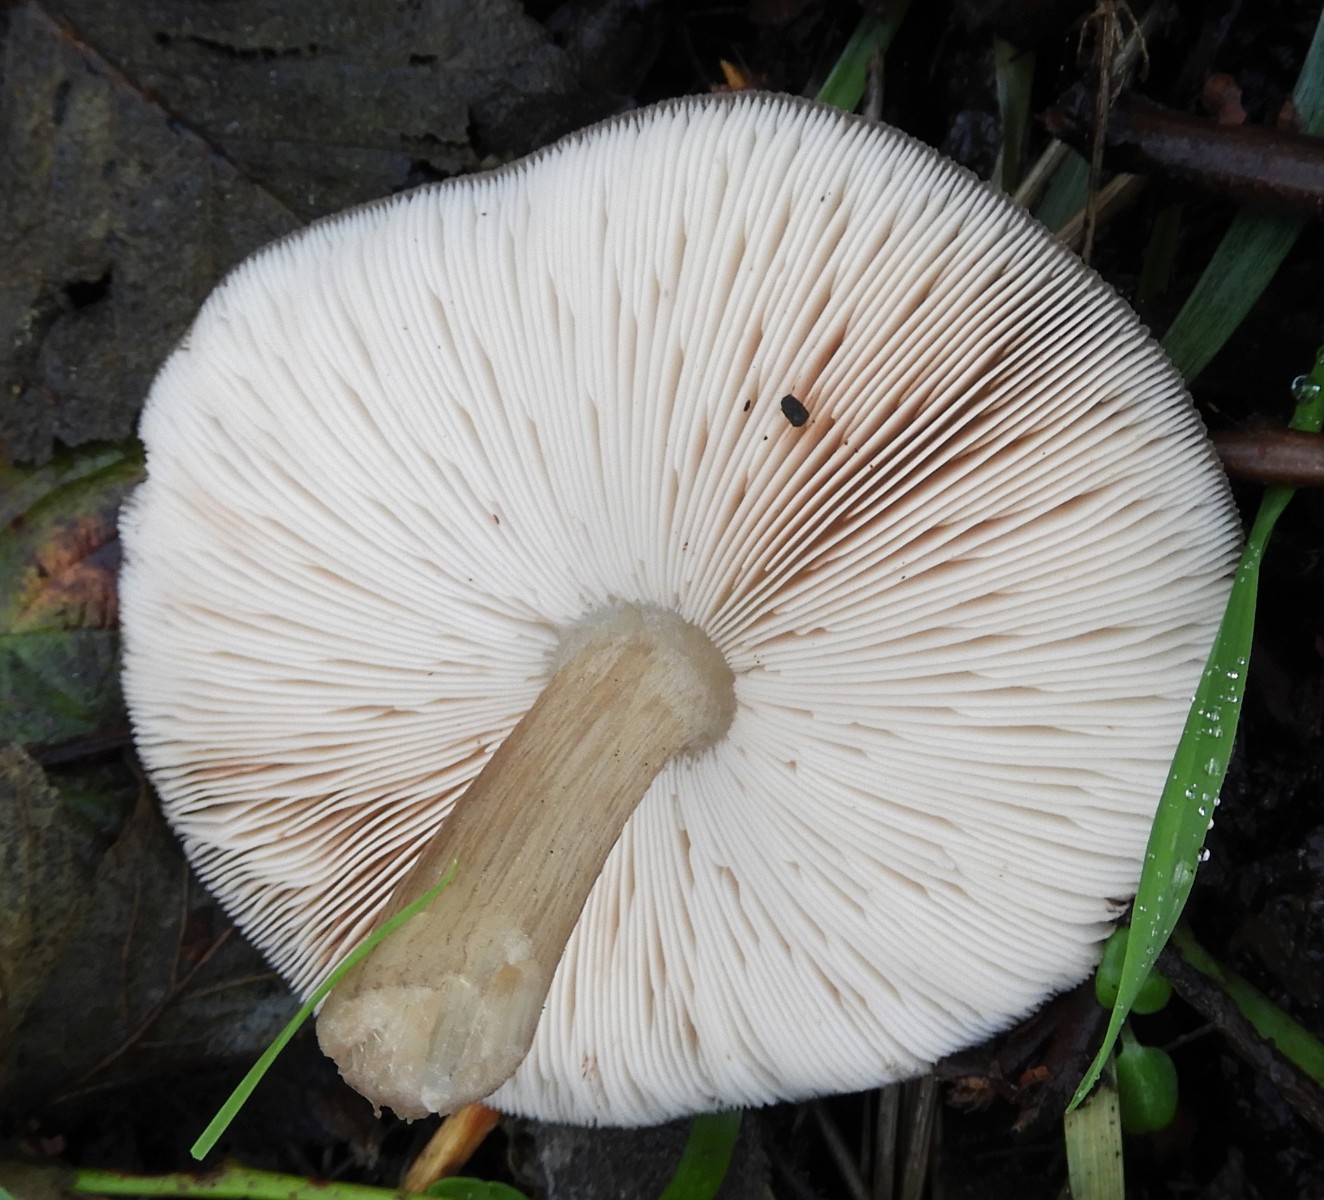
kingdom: Fungi
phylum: Basidiomycota
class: Agaricomycetes
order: Agaricales
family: Pluteaceae
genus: Pluteus
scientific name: Pluteus cervinus
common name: sodfarvet skærmhat
